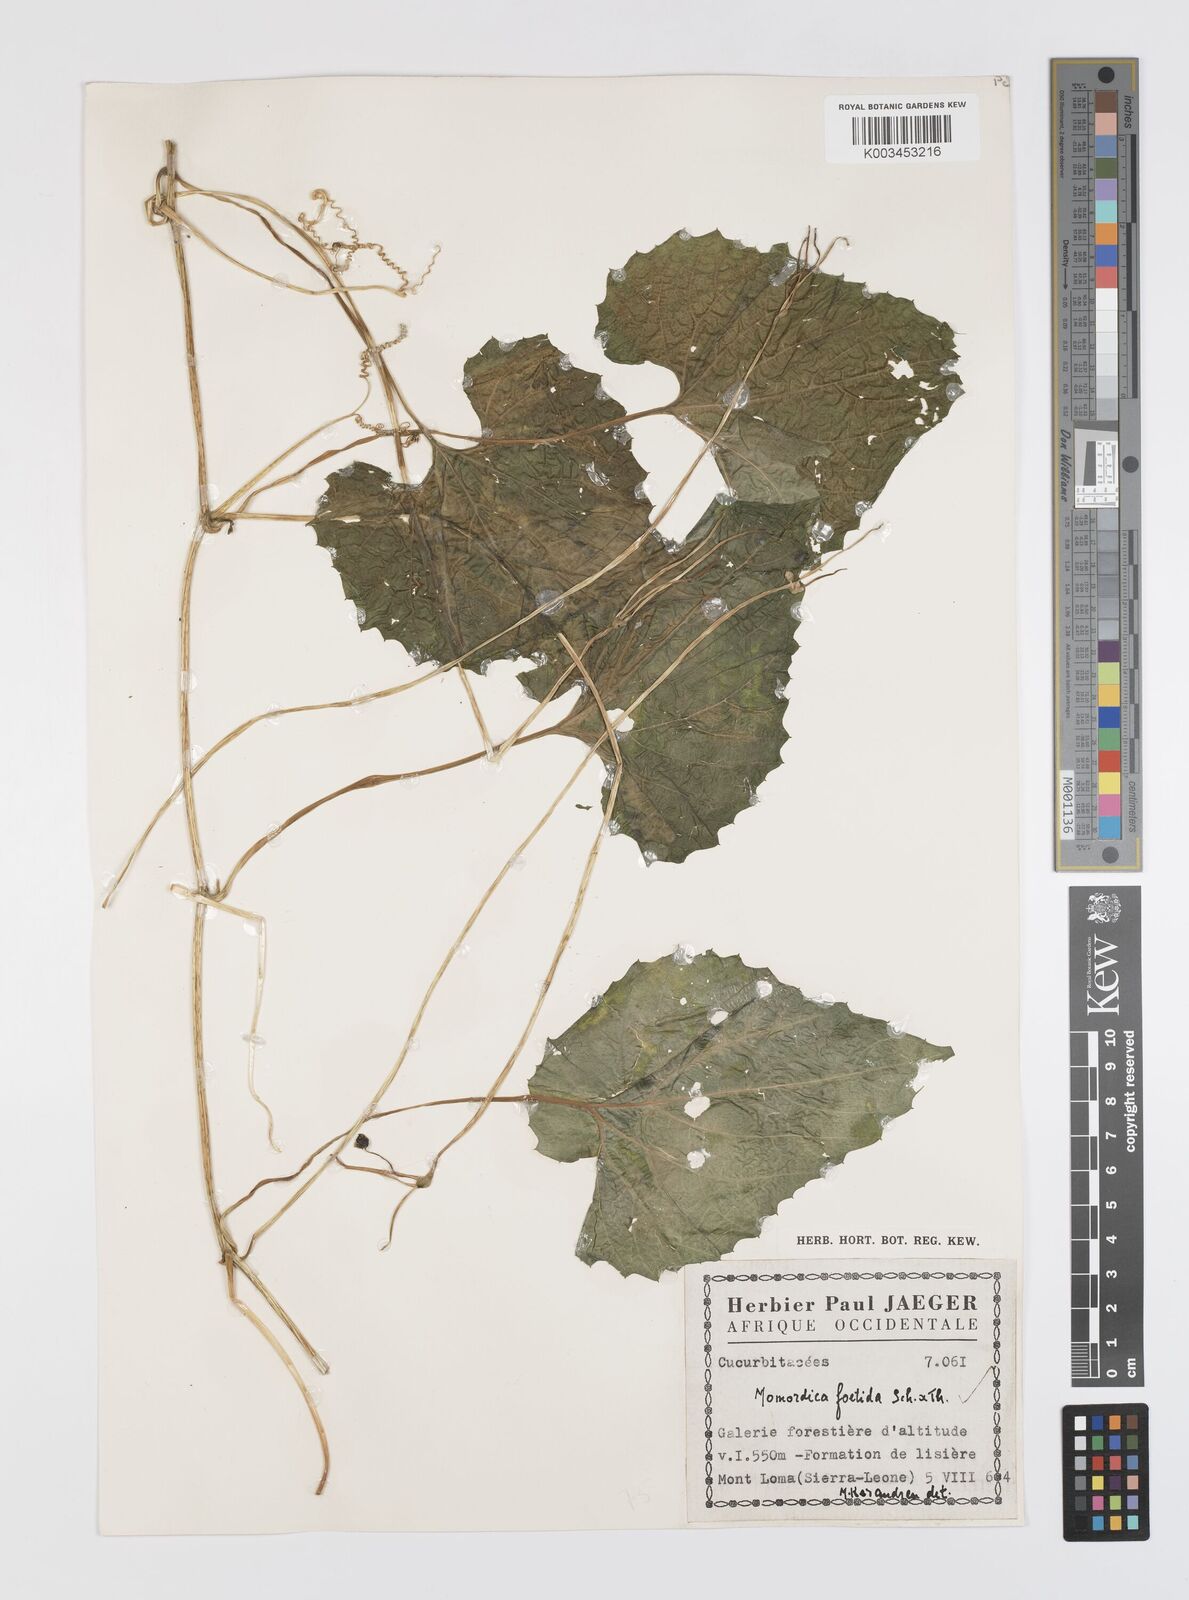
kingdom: Plantae
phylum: Tracheophyta
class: Magnoliopsida
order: Cucurbitales
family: Cucurbitaceae
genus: Momordica
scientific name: Momordica foetida
